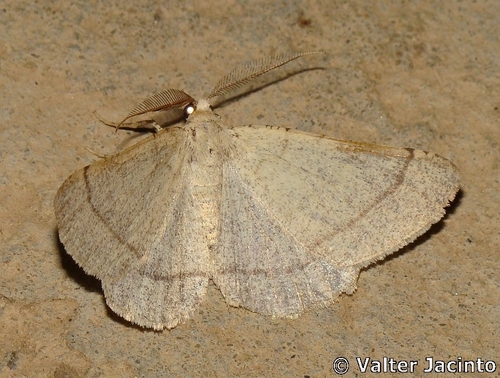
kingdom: Animalia
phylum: Arthropoda
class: Insecta
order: Lepidoptera
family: Geometridae
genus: Adactylotis
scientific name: Adactylotis gesticularia
